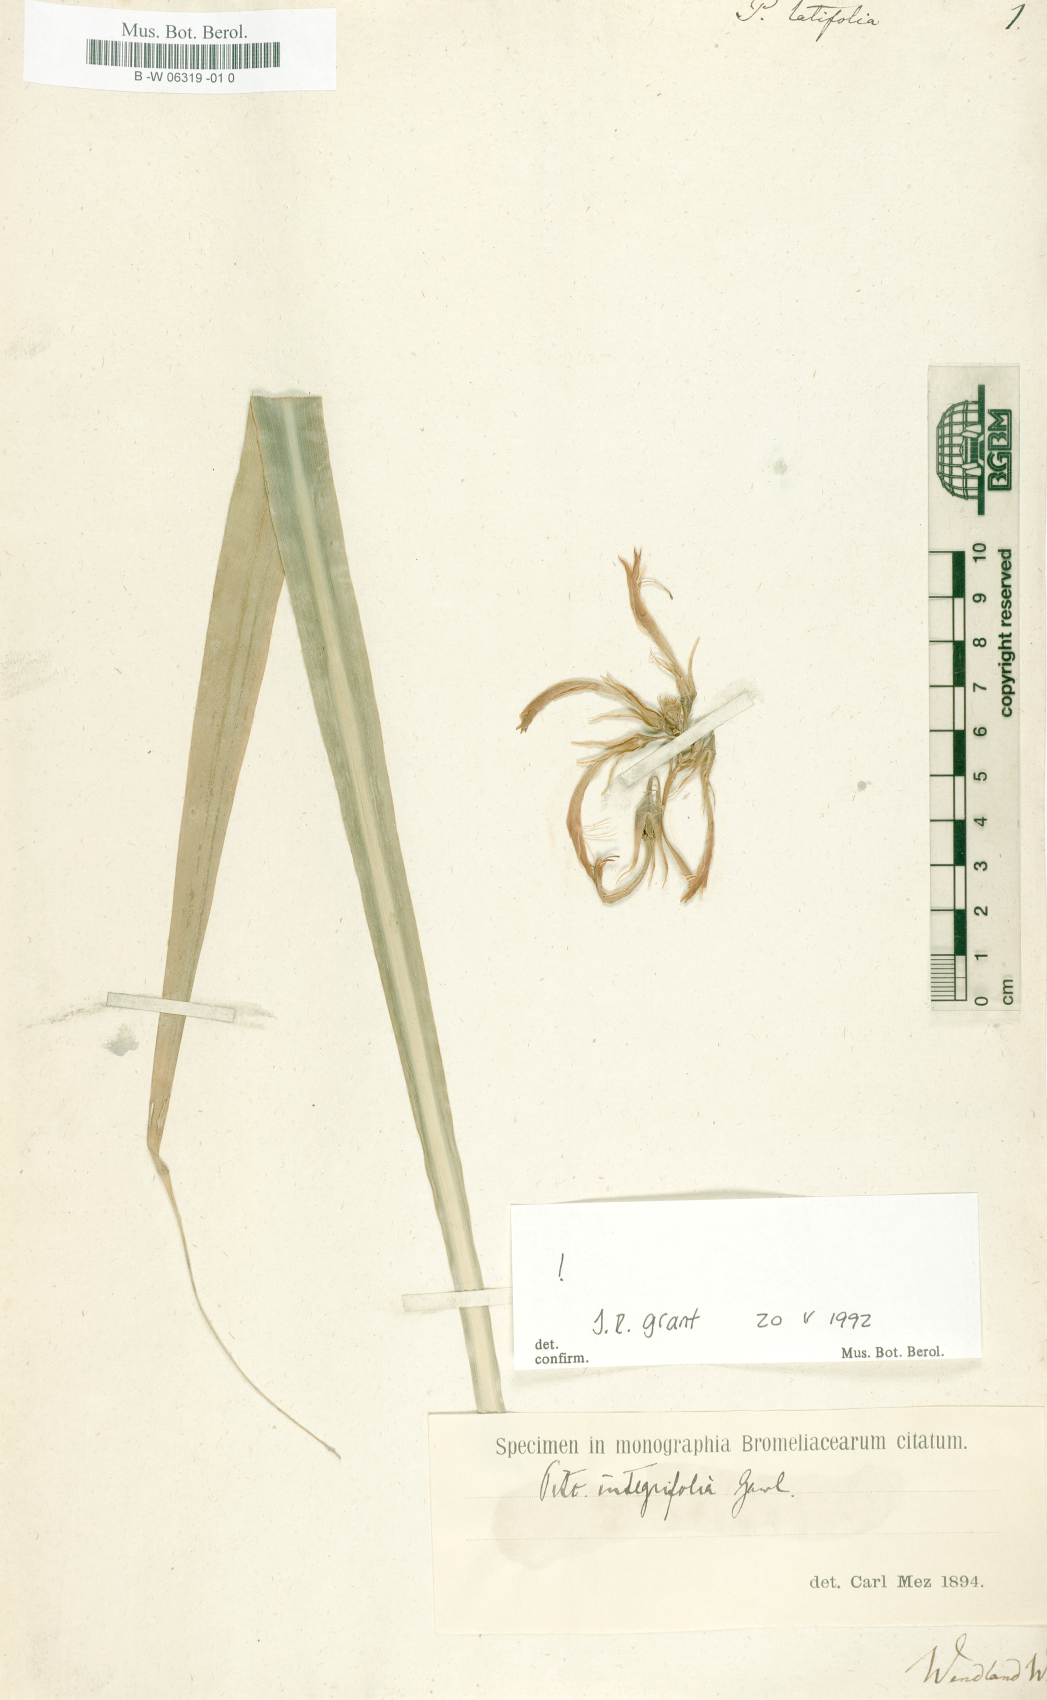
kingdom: Plantae
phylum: Tracheophyta
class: Liliopsida
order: Poales
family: Bromeliaceae
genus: Pitcairnia
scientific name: Pitcairnia angustifolia
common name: Clapper
